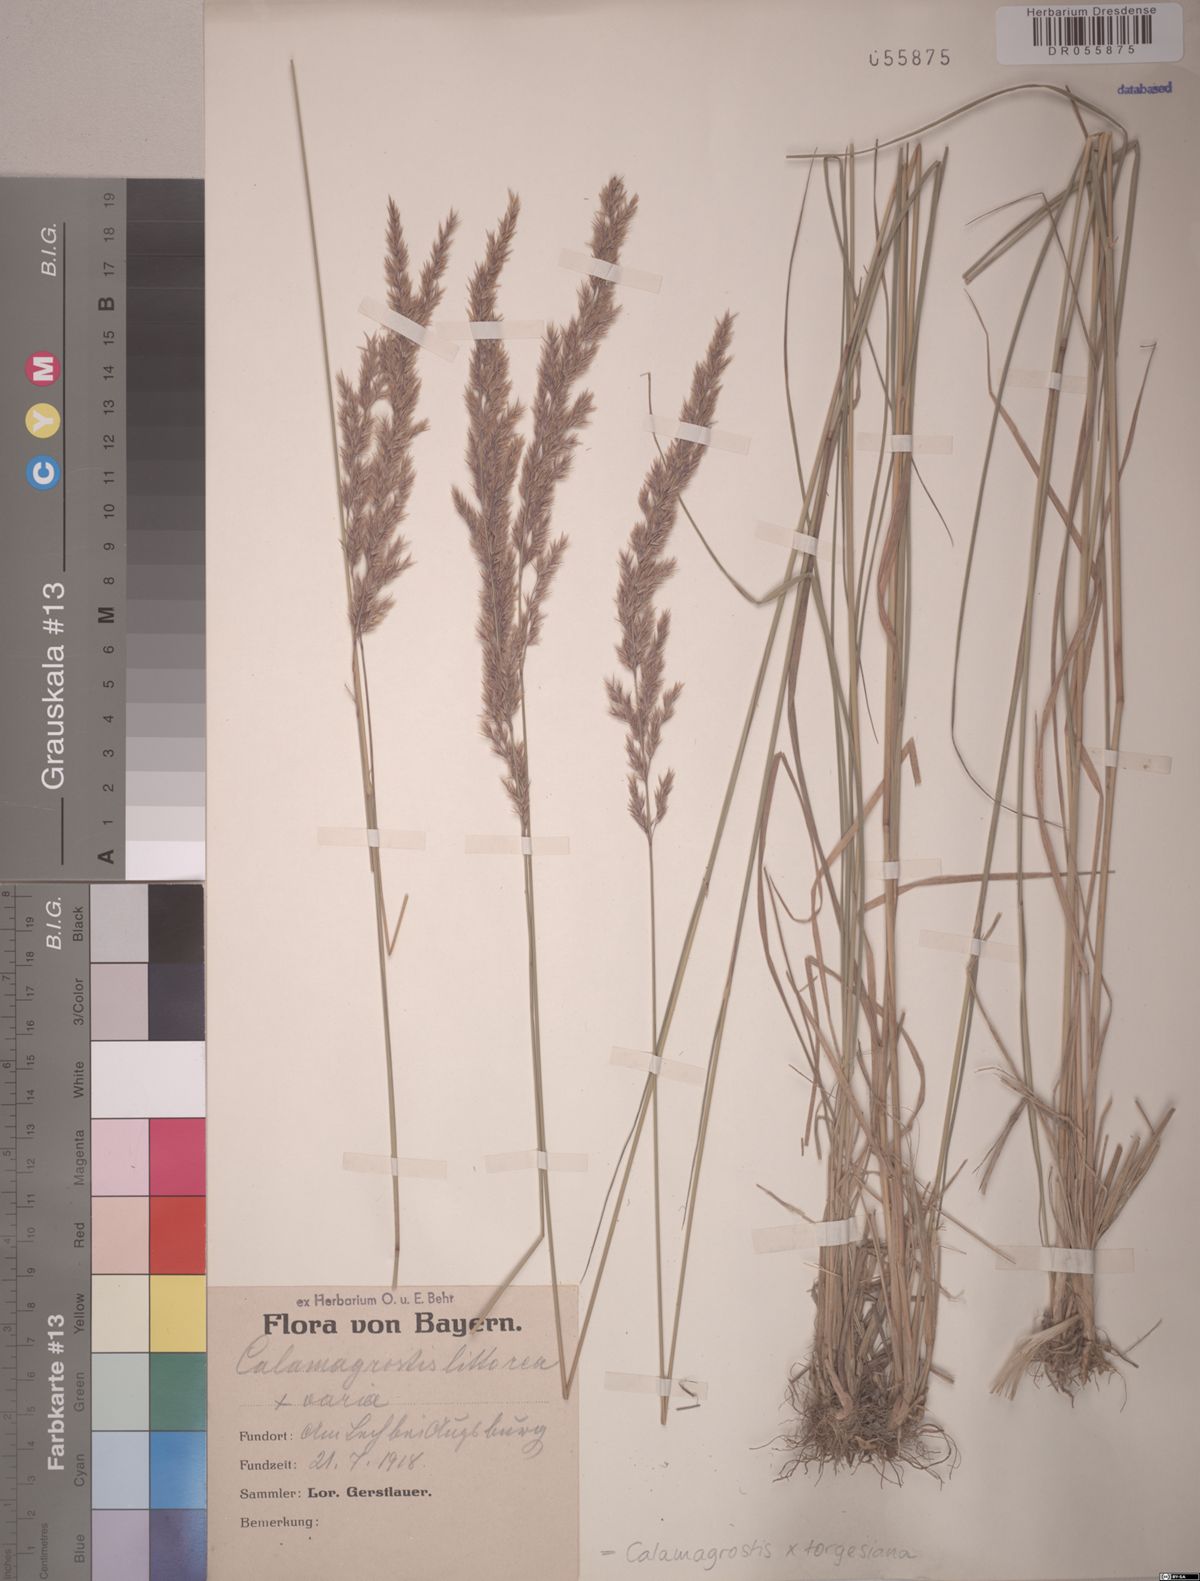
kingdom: Plantae
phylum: Tracheophyta
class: Liliopsida
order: Poales
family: Poaceae
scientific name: Poaceae
